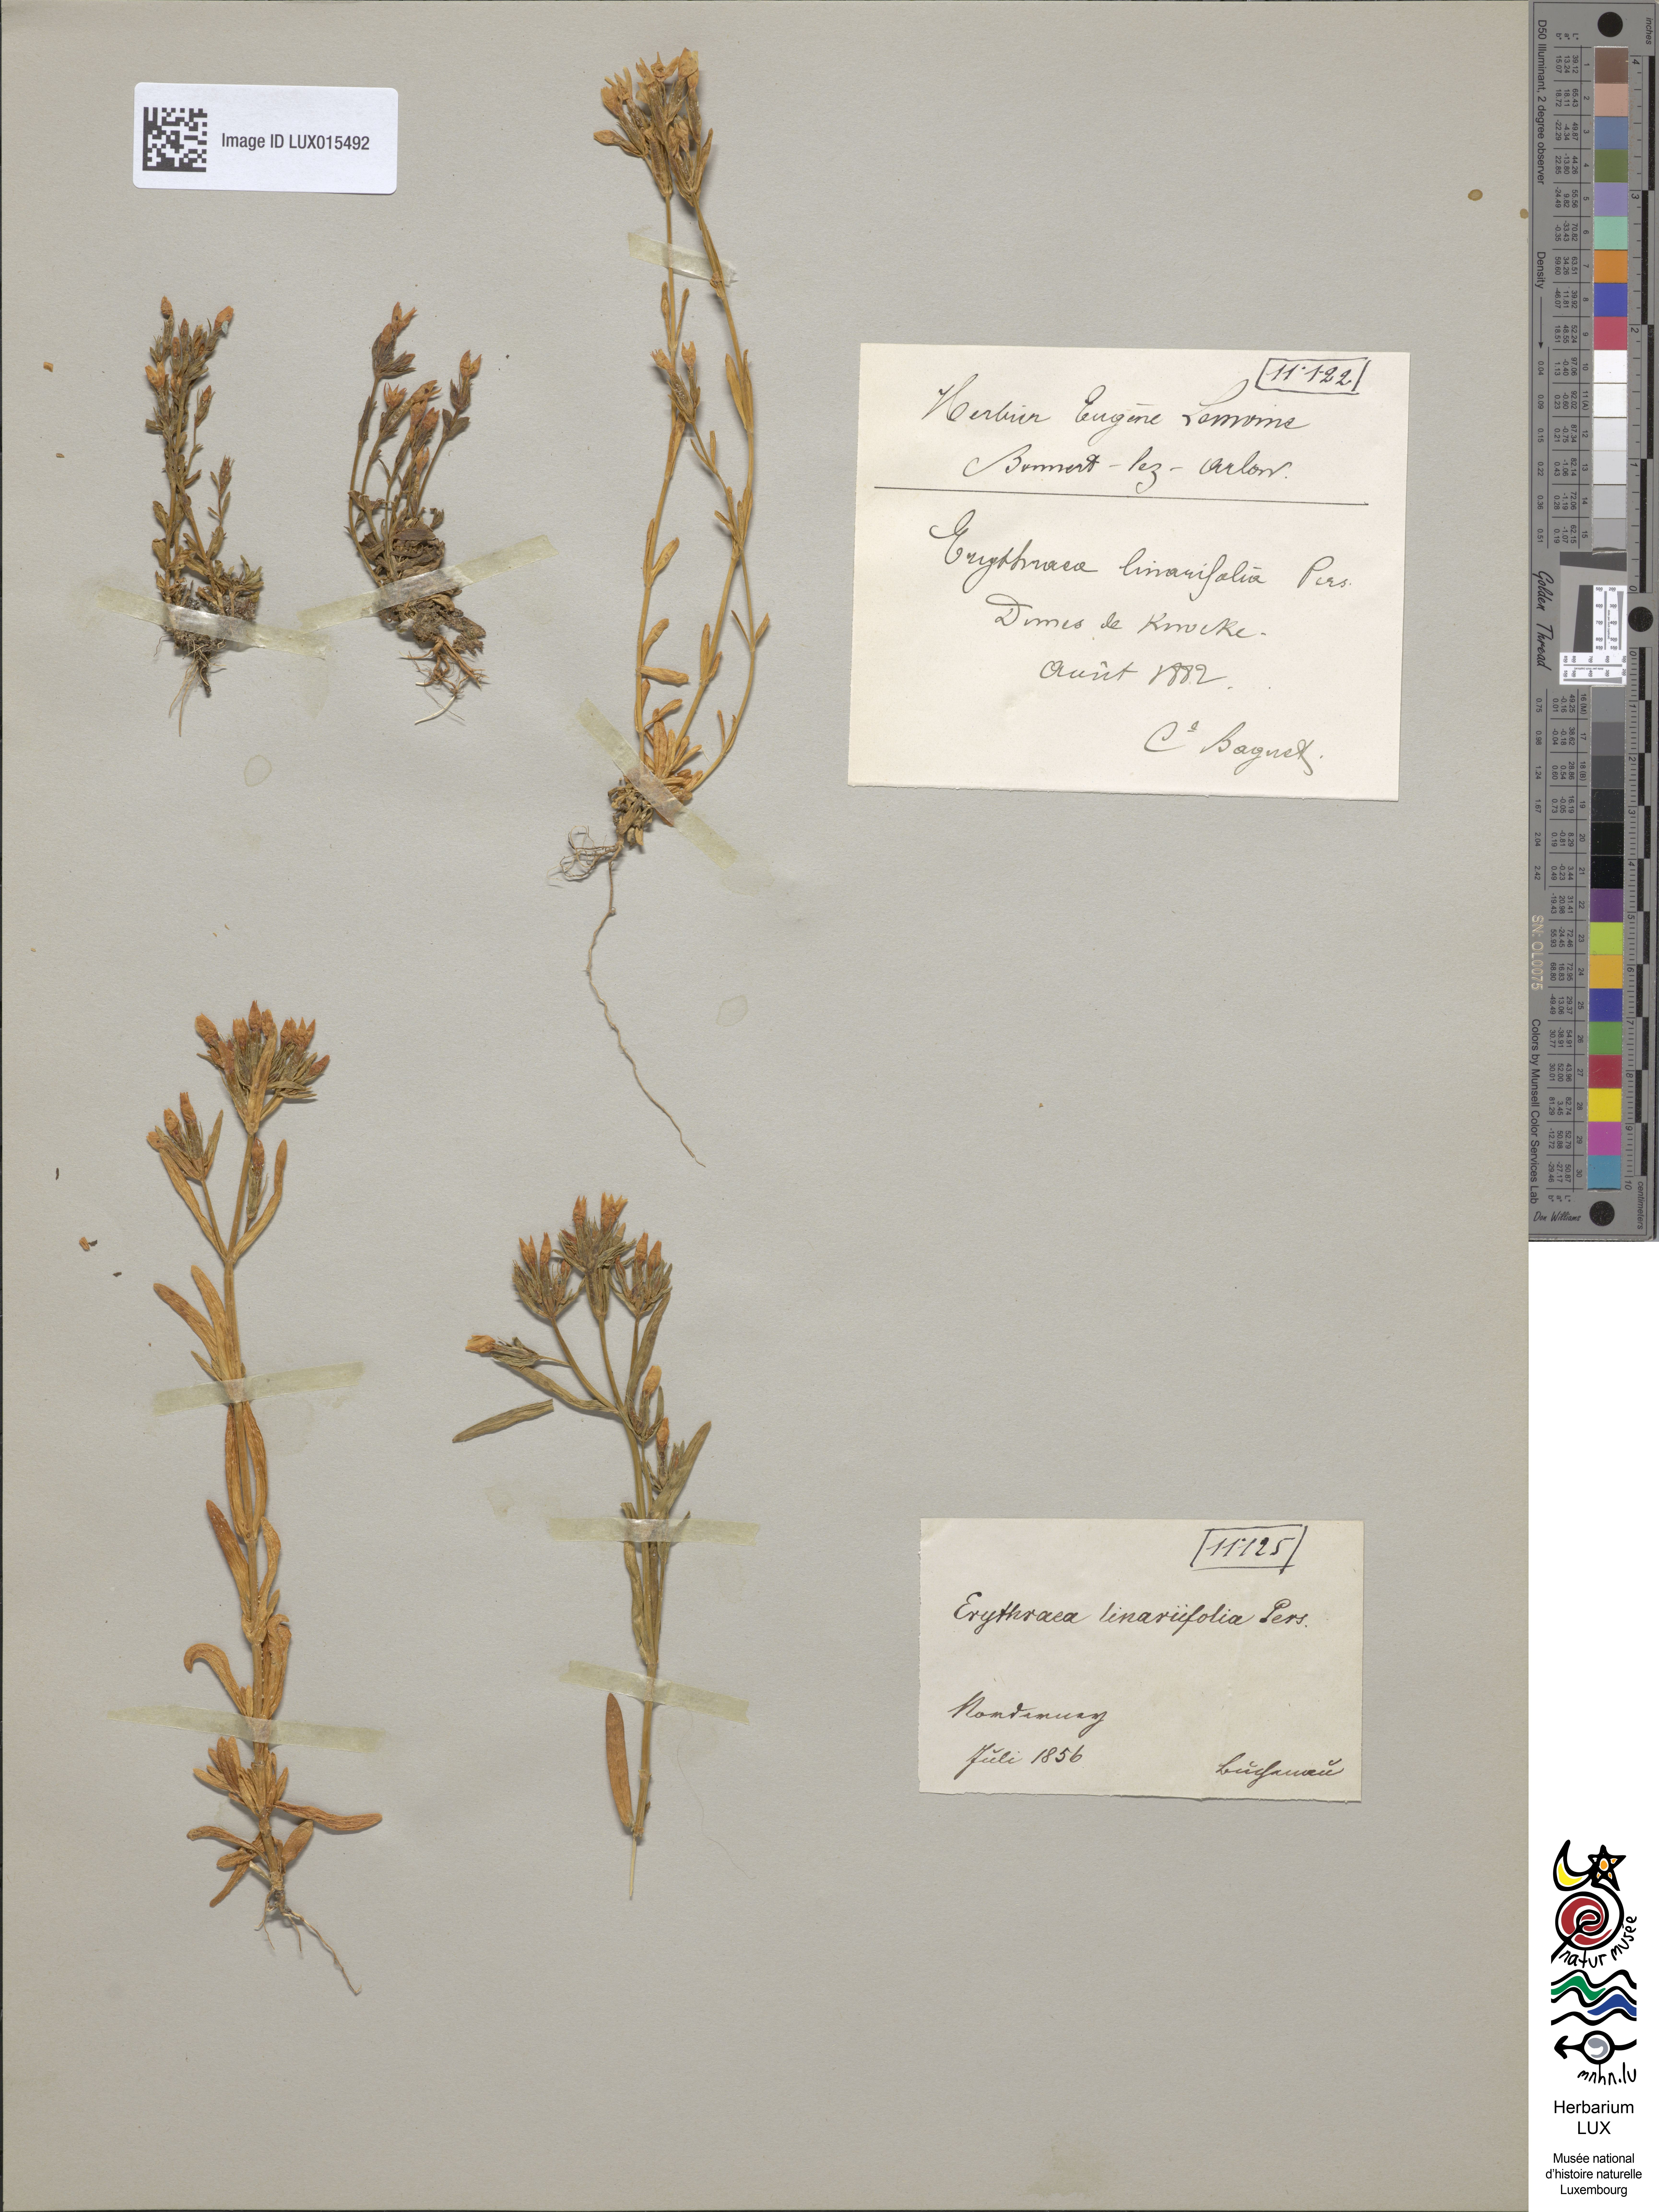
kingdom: Plantae
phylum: Tracheophyta
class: Magnoliopsida
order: Gentianales
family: Gentianaceae
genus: Centaurium
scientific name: Centaurium littorale
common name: Seaside centaury
